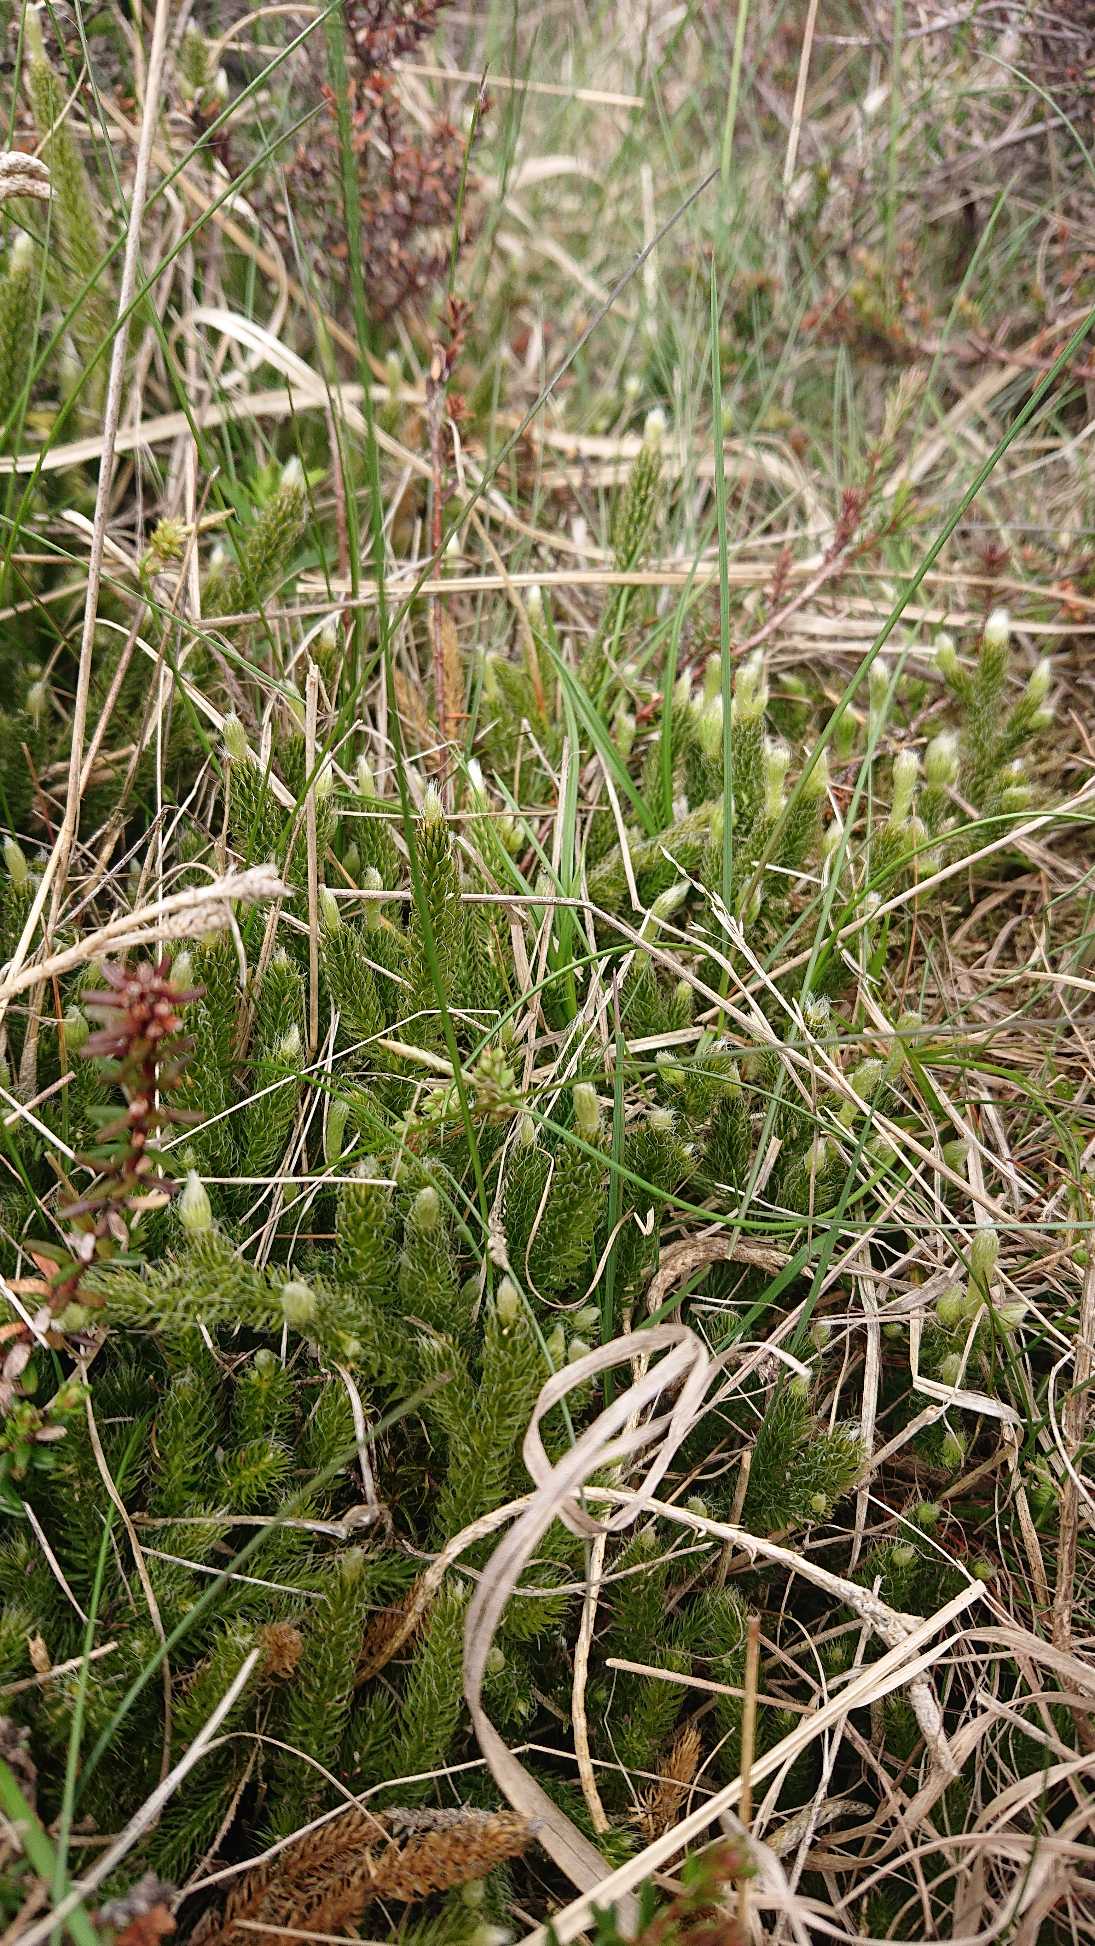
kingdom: Plantae
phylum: Tracheophyta
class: Lycopodiopsida
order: Lycopodiales
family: Lycopodiaceae
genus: Lycopodium
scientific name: Lycopodium clavatum
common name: Almindelig ulvefod
